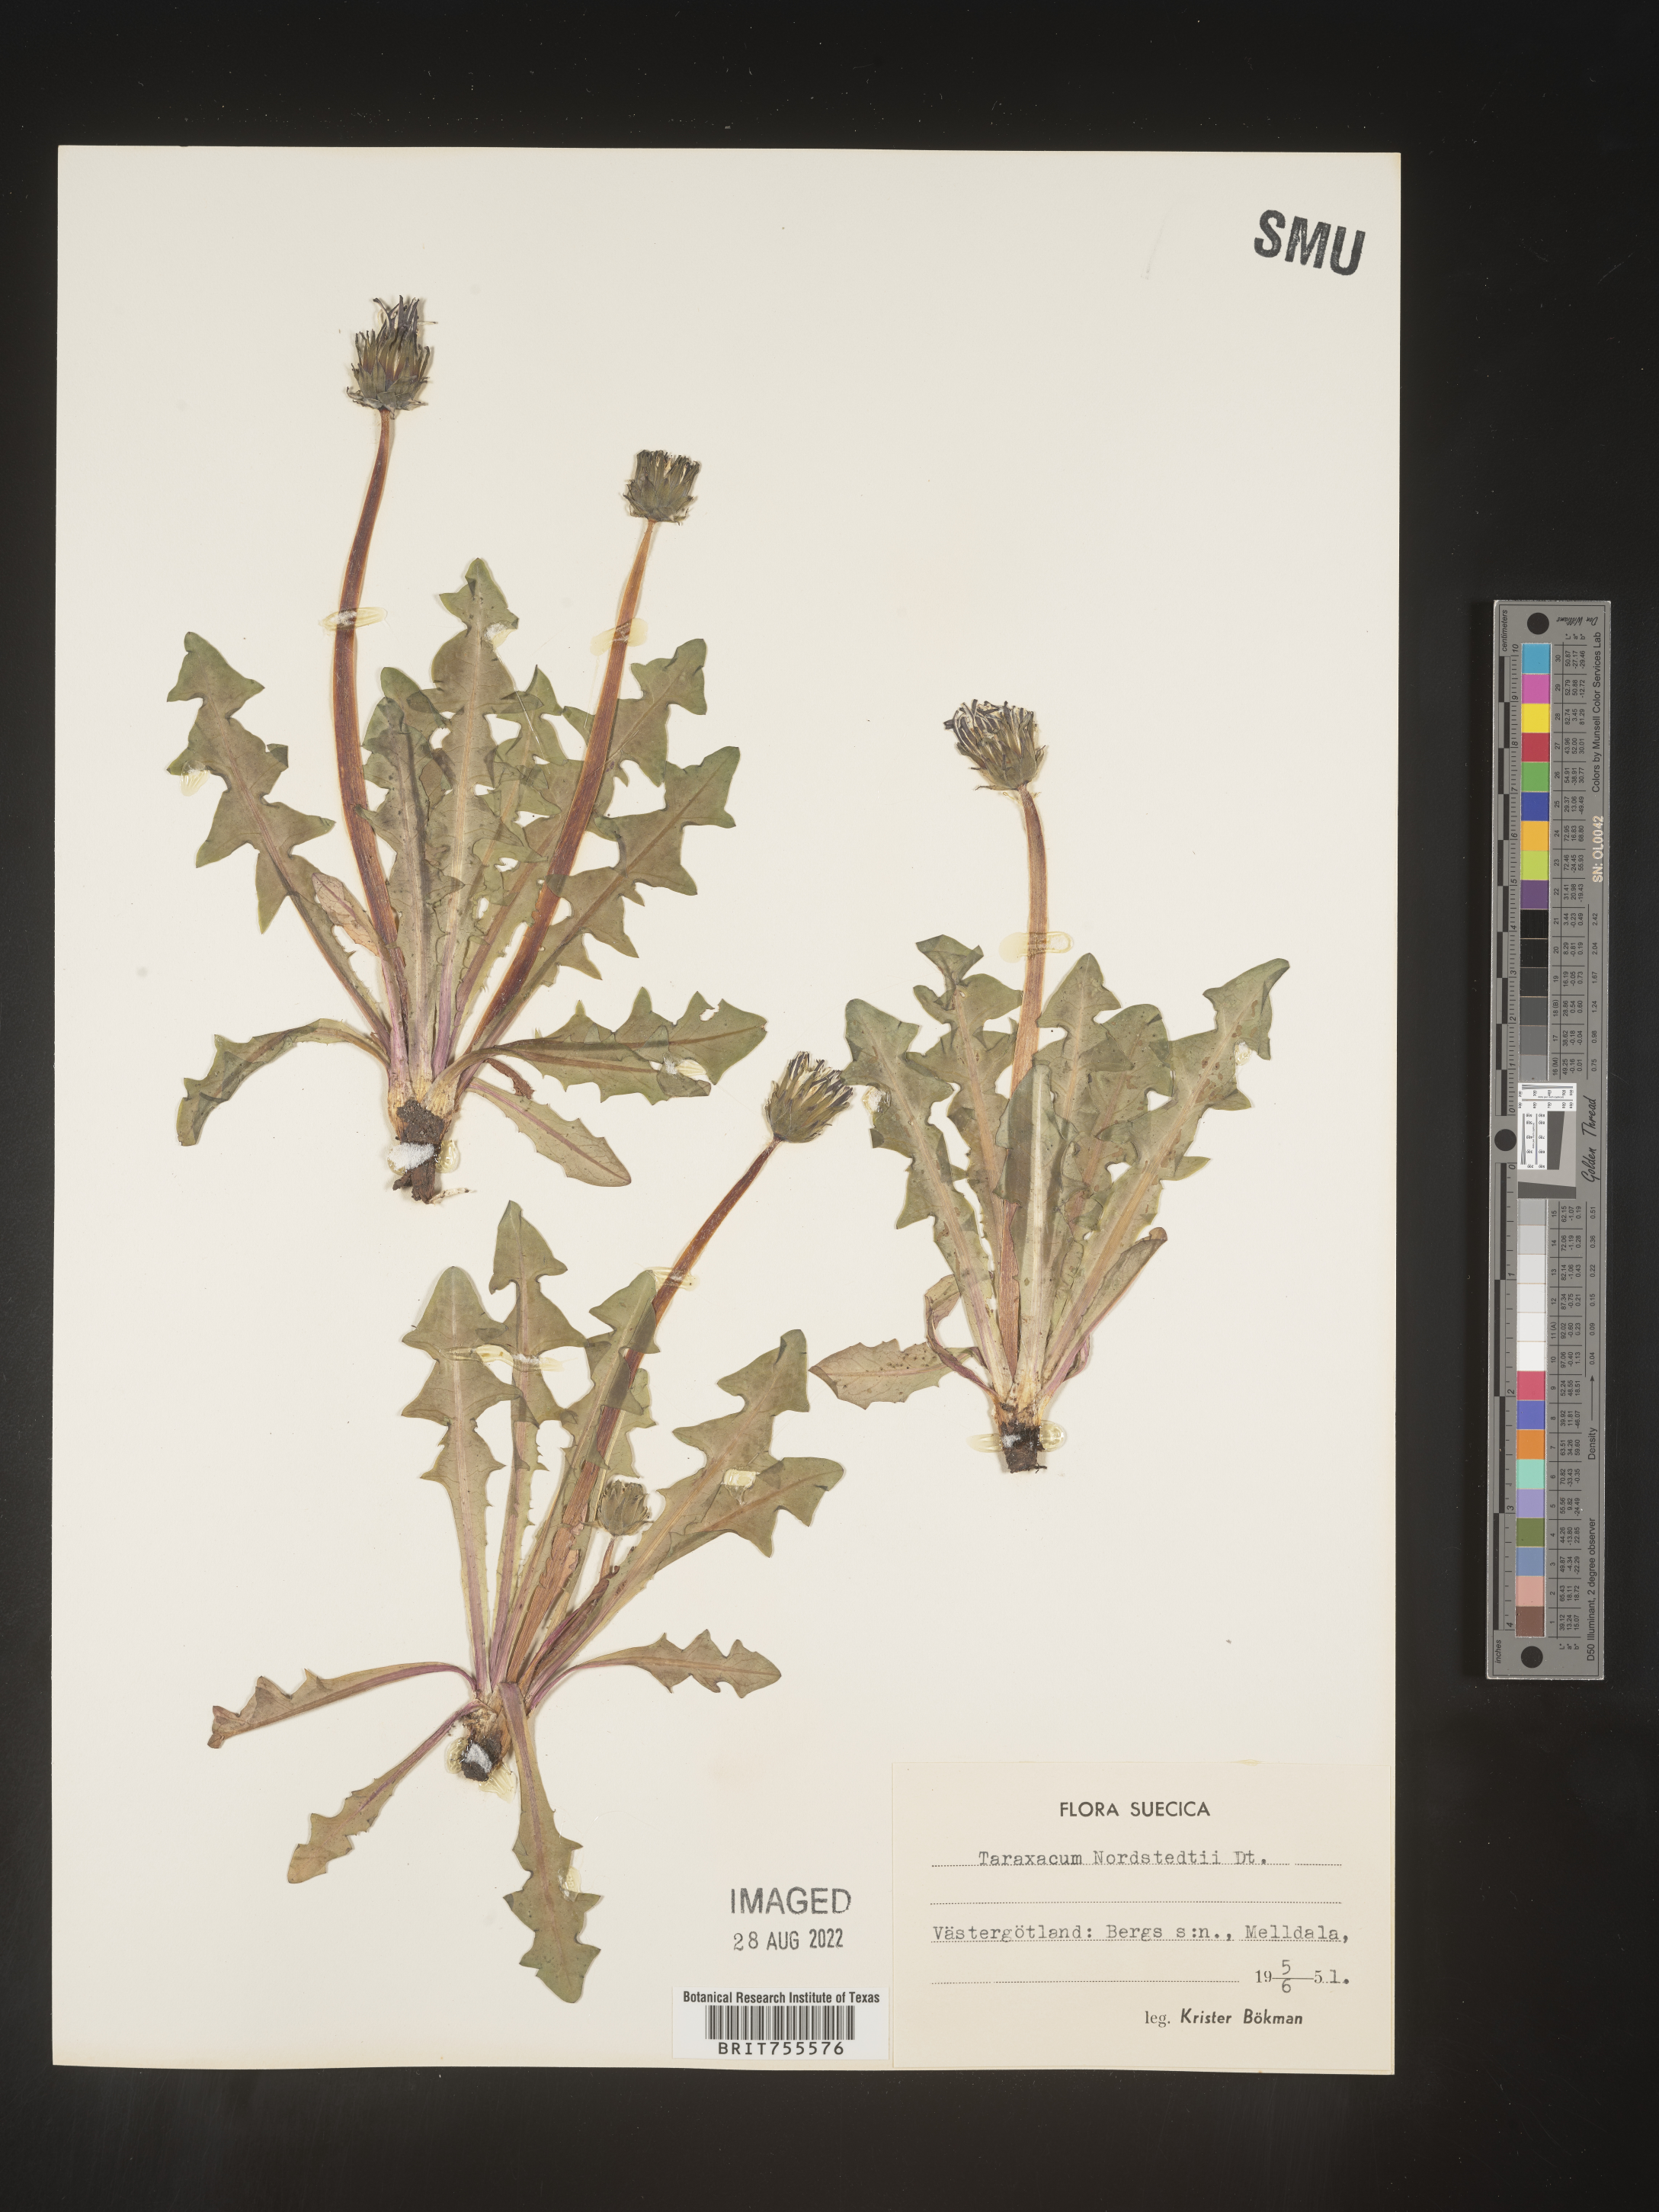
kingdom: Plantae
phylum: Tracheophyta
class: Magnoliopsida
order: Asterales
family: Asteraceae
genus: Taraxacum
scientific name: Taraxacum
